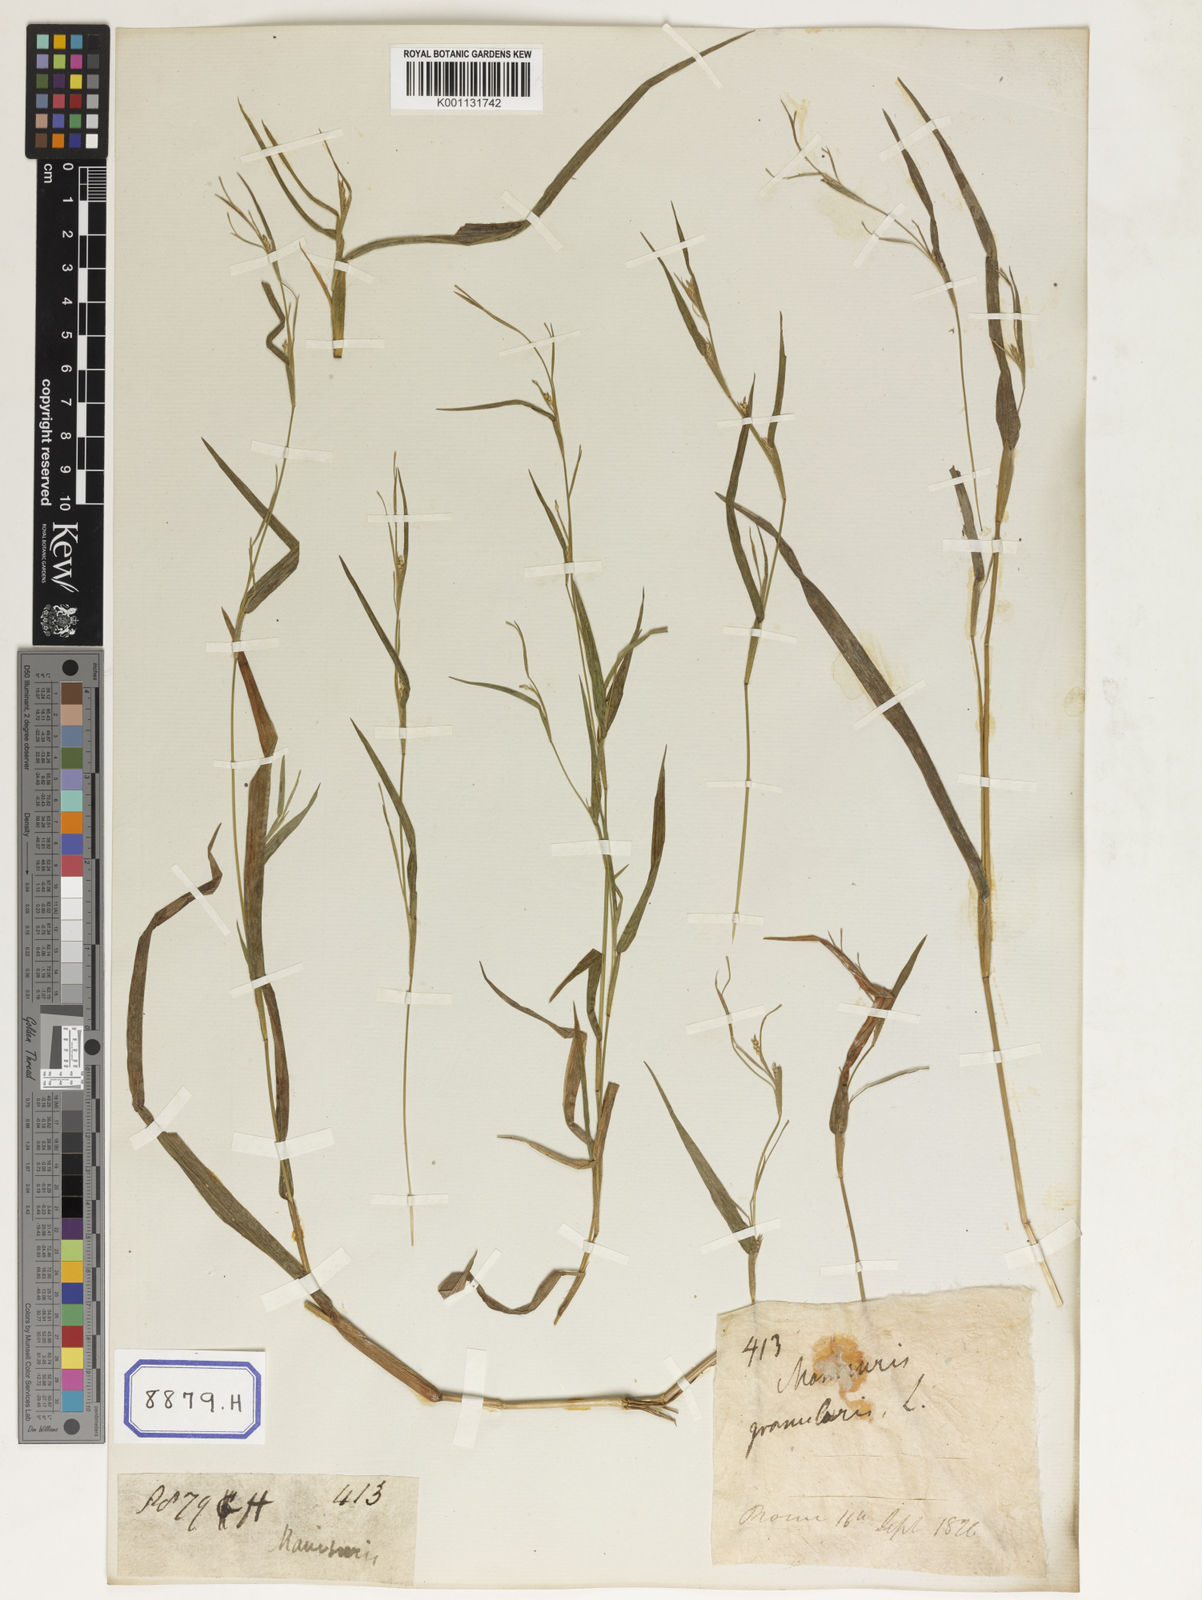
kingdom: Plantae
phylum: Tracheophyta
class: Liliopsida
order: Poales
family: Poaceae
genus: Manisuris
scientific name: Manisuris
